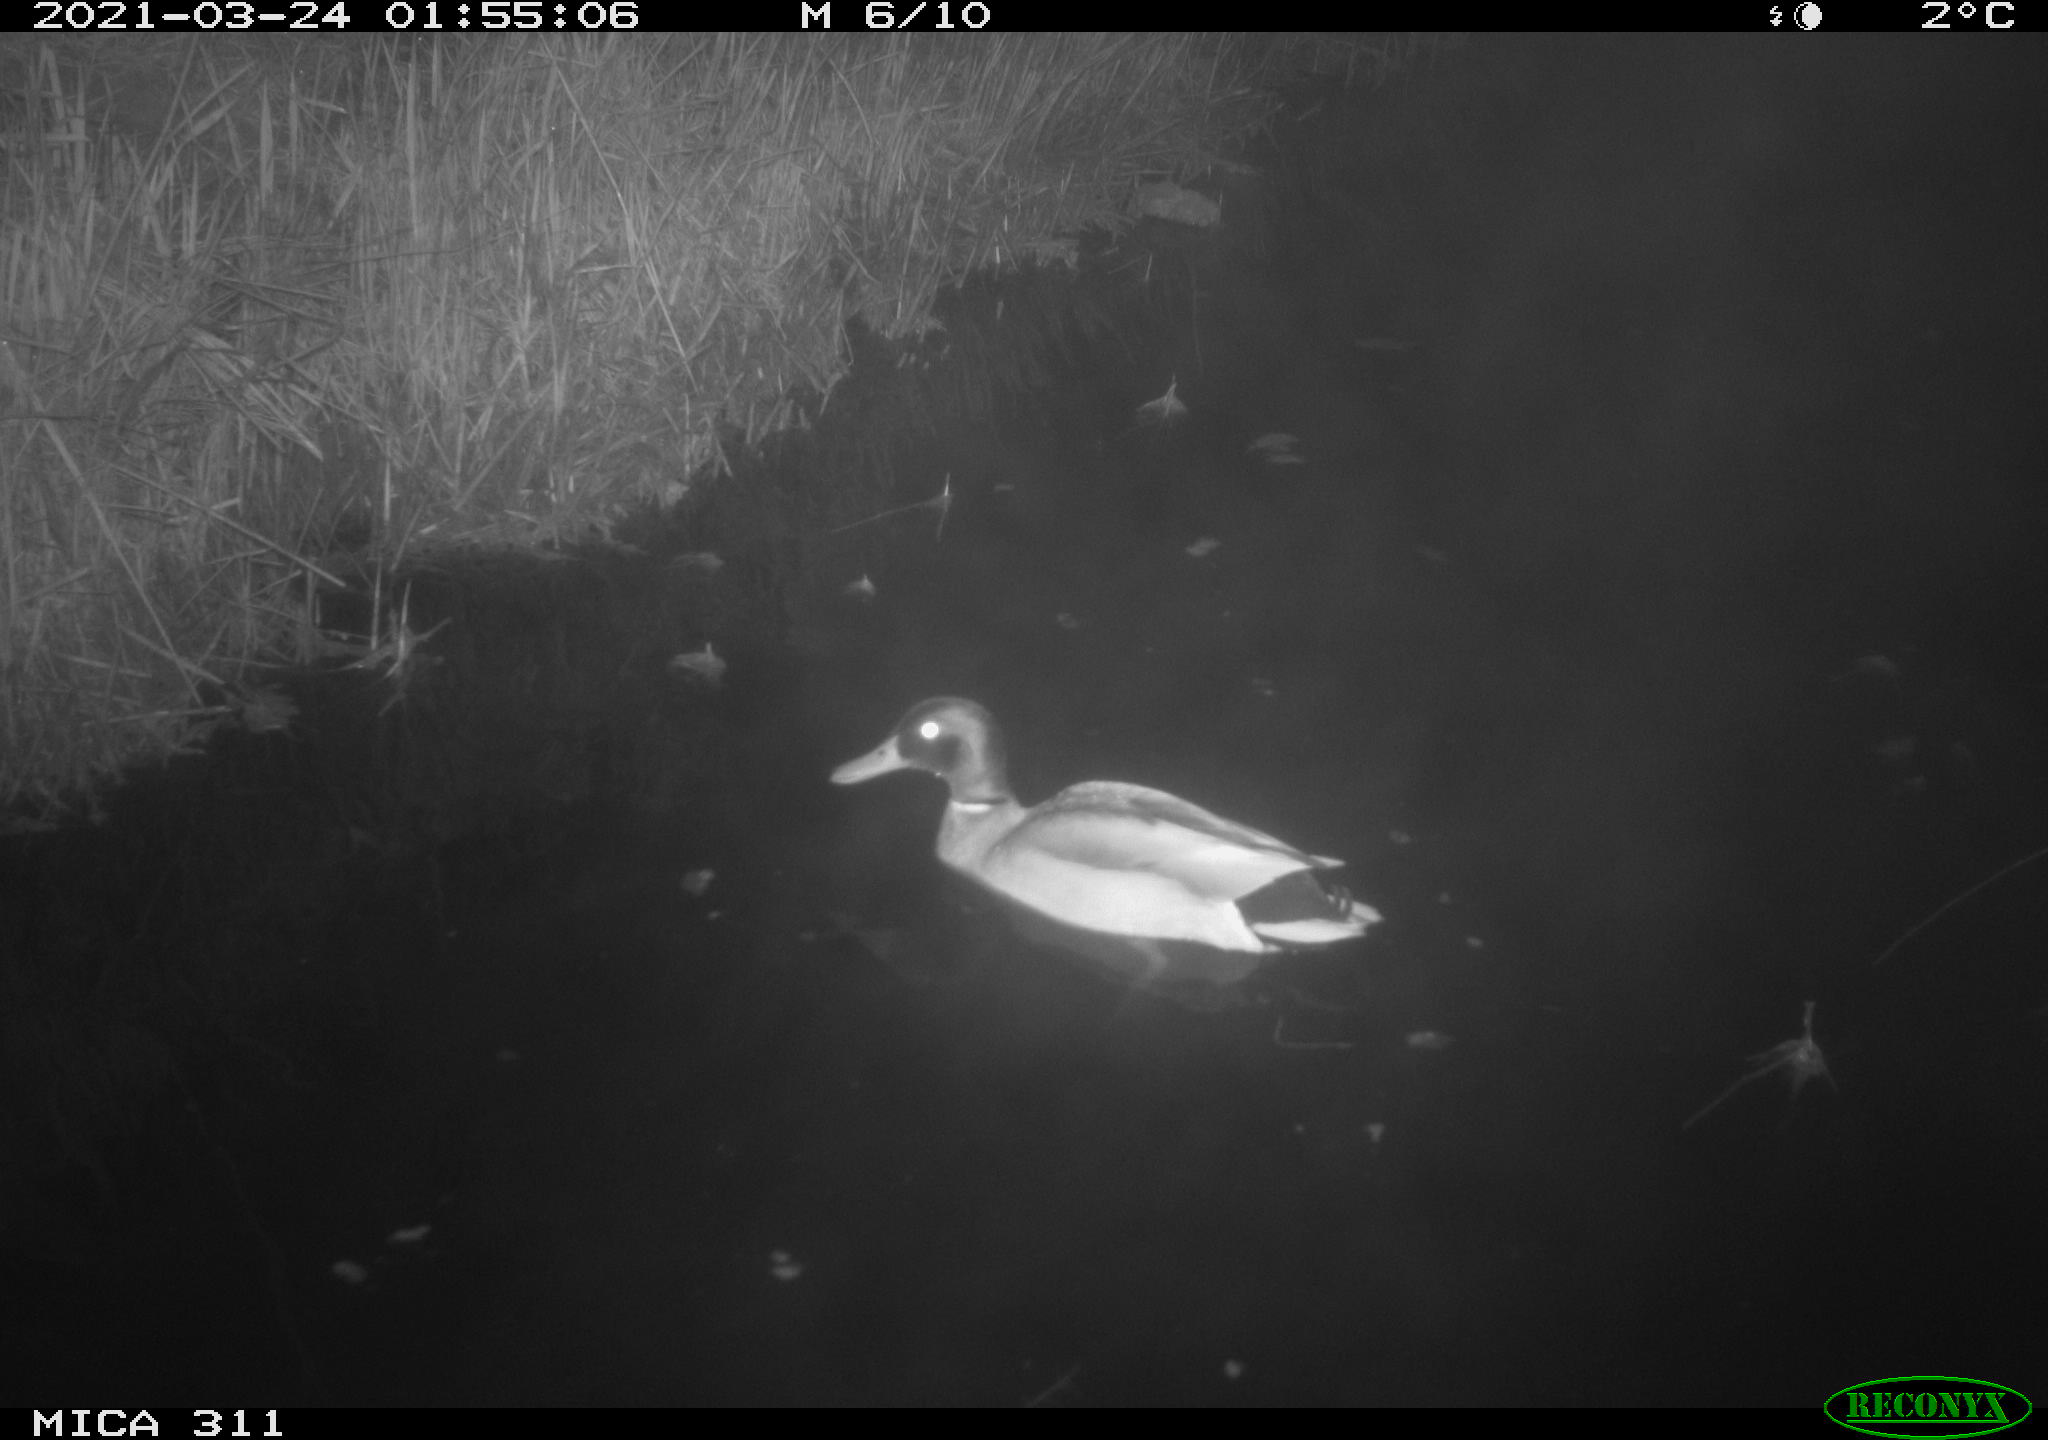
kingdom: Animalia
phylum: Chordata
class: Aves
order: Anseriformes
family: Anatidae
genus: Anas
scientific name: Anas
